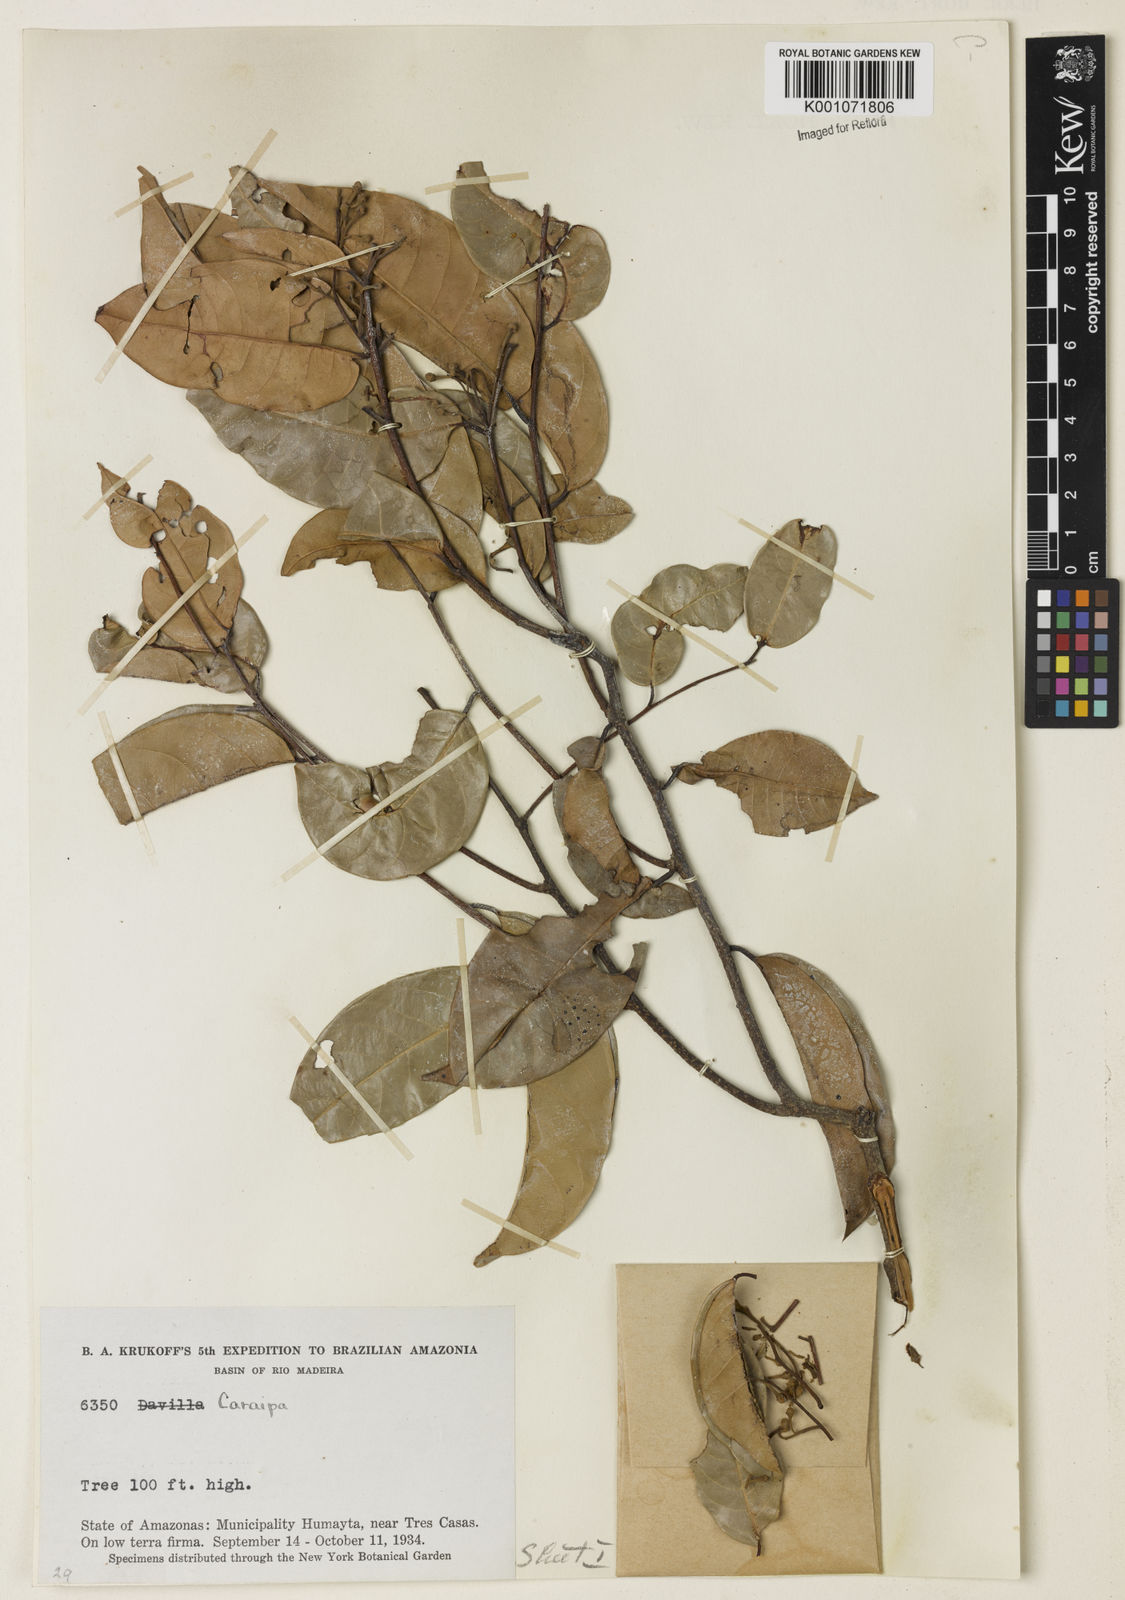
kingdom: Plantae
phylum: Tracheophyta
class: Magnoliopsida
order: Malpighiales
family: Calophyllaceae
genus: Caraipa
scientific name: Caraipa
